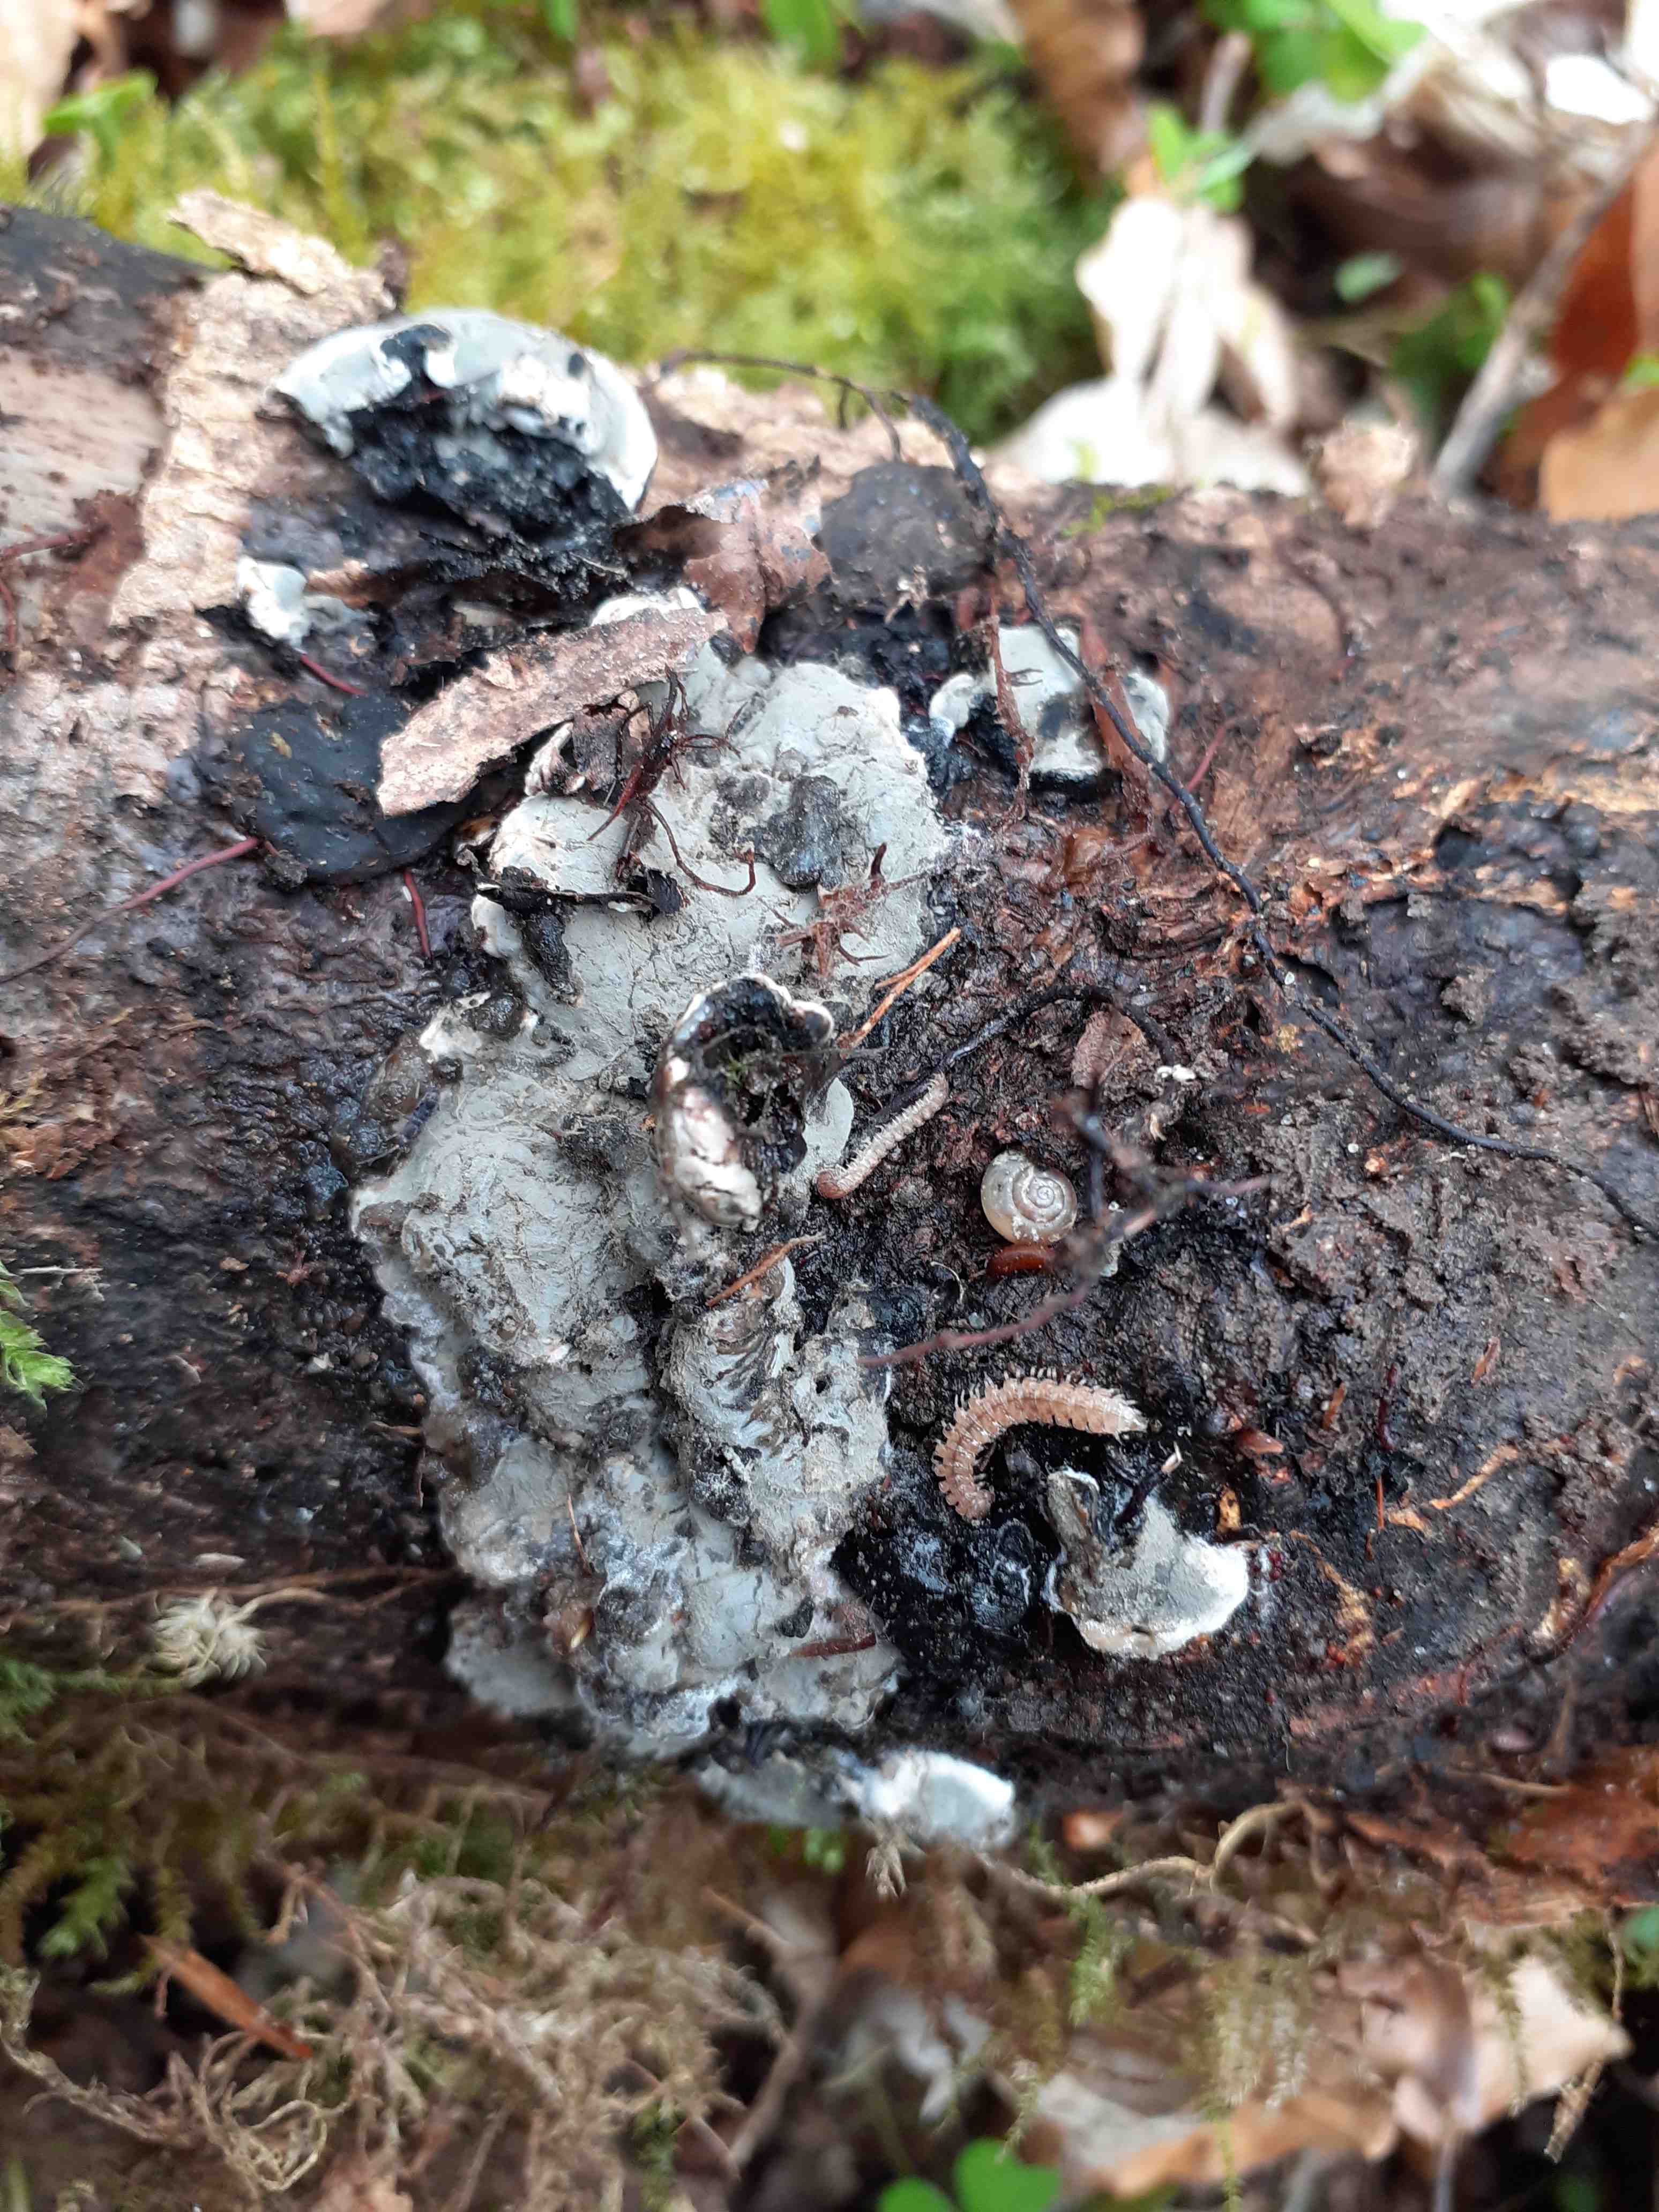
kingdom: Fungi
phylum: Ascomycota
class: Sordariomycetes
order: Xylariales
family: Xylariaceae
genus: Kretzschmaria
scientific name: Kretzschmaria deusta
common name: stor kulsvamp
